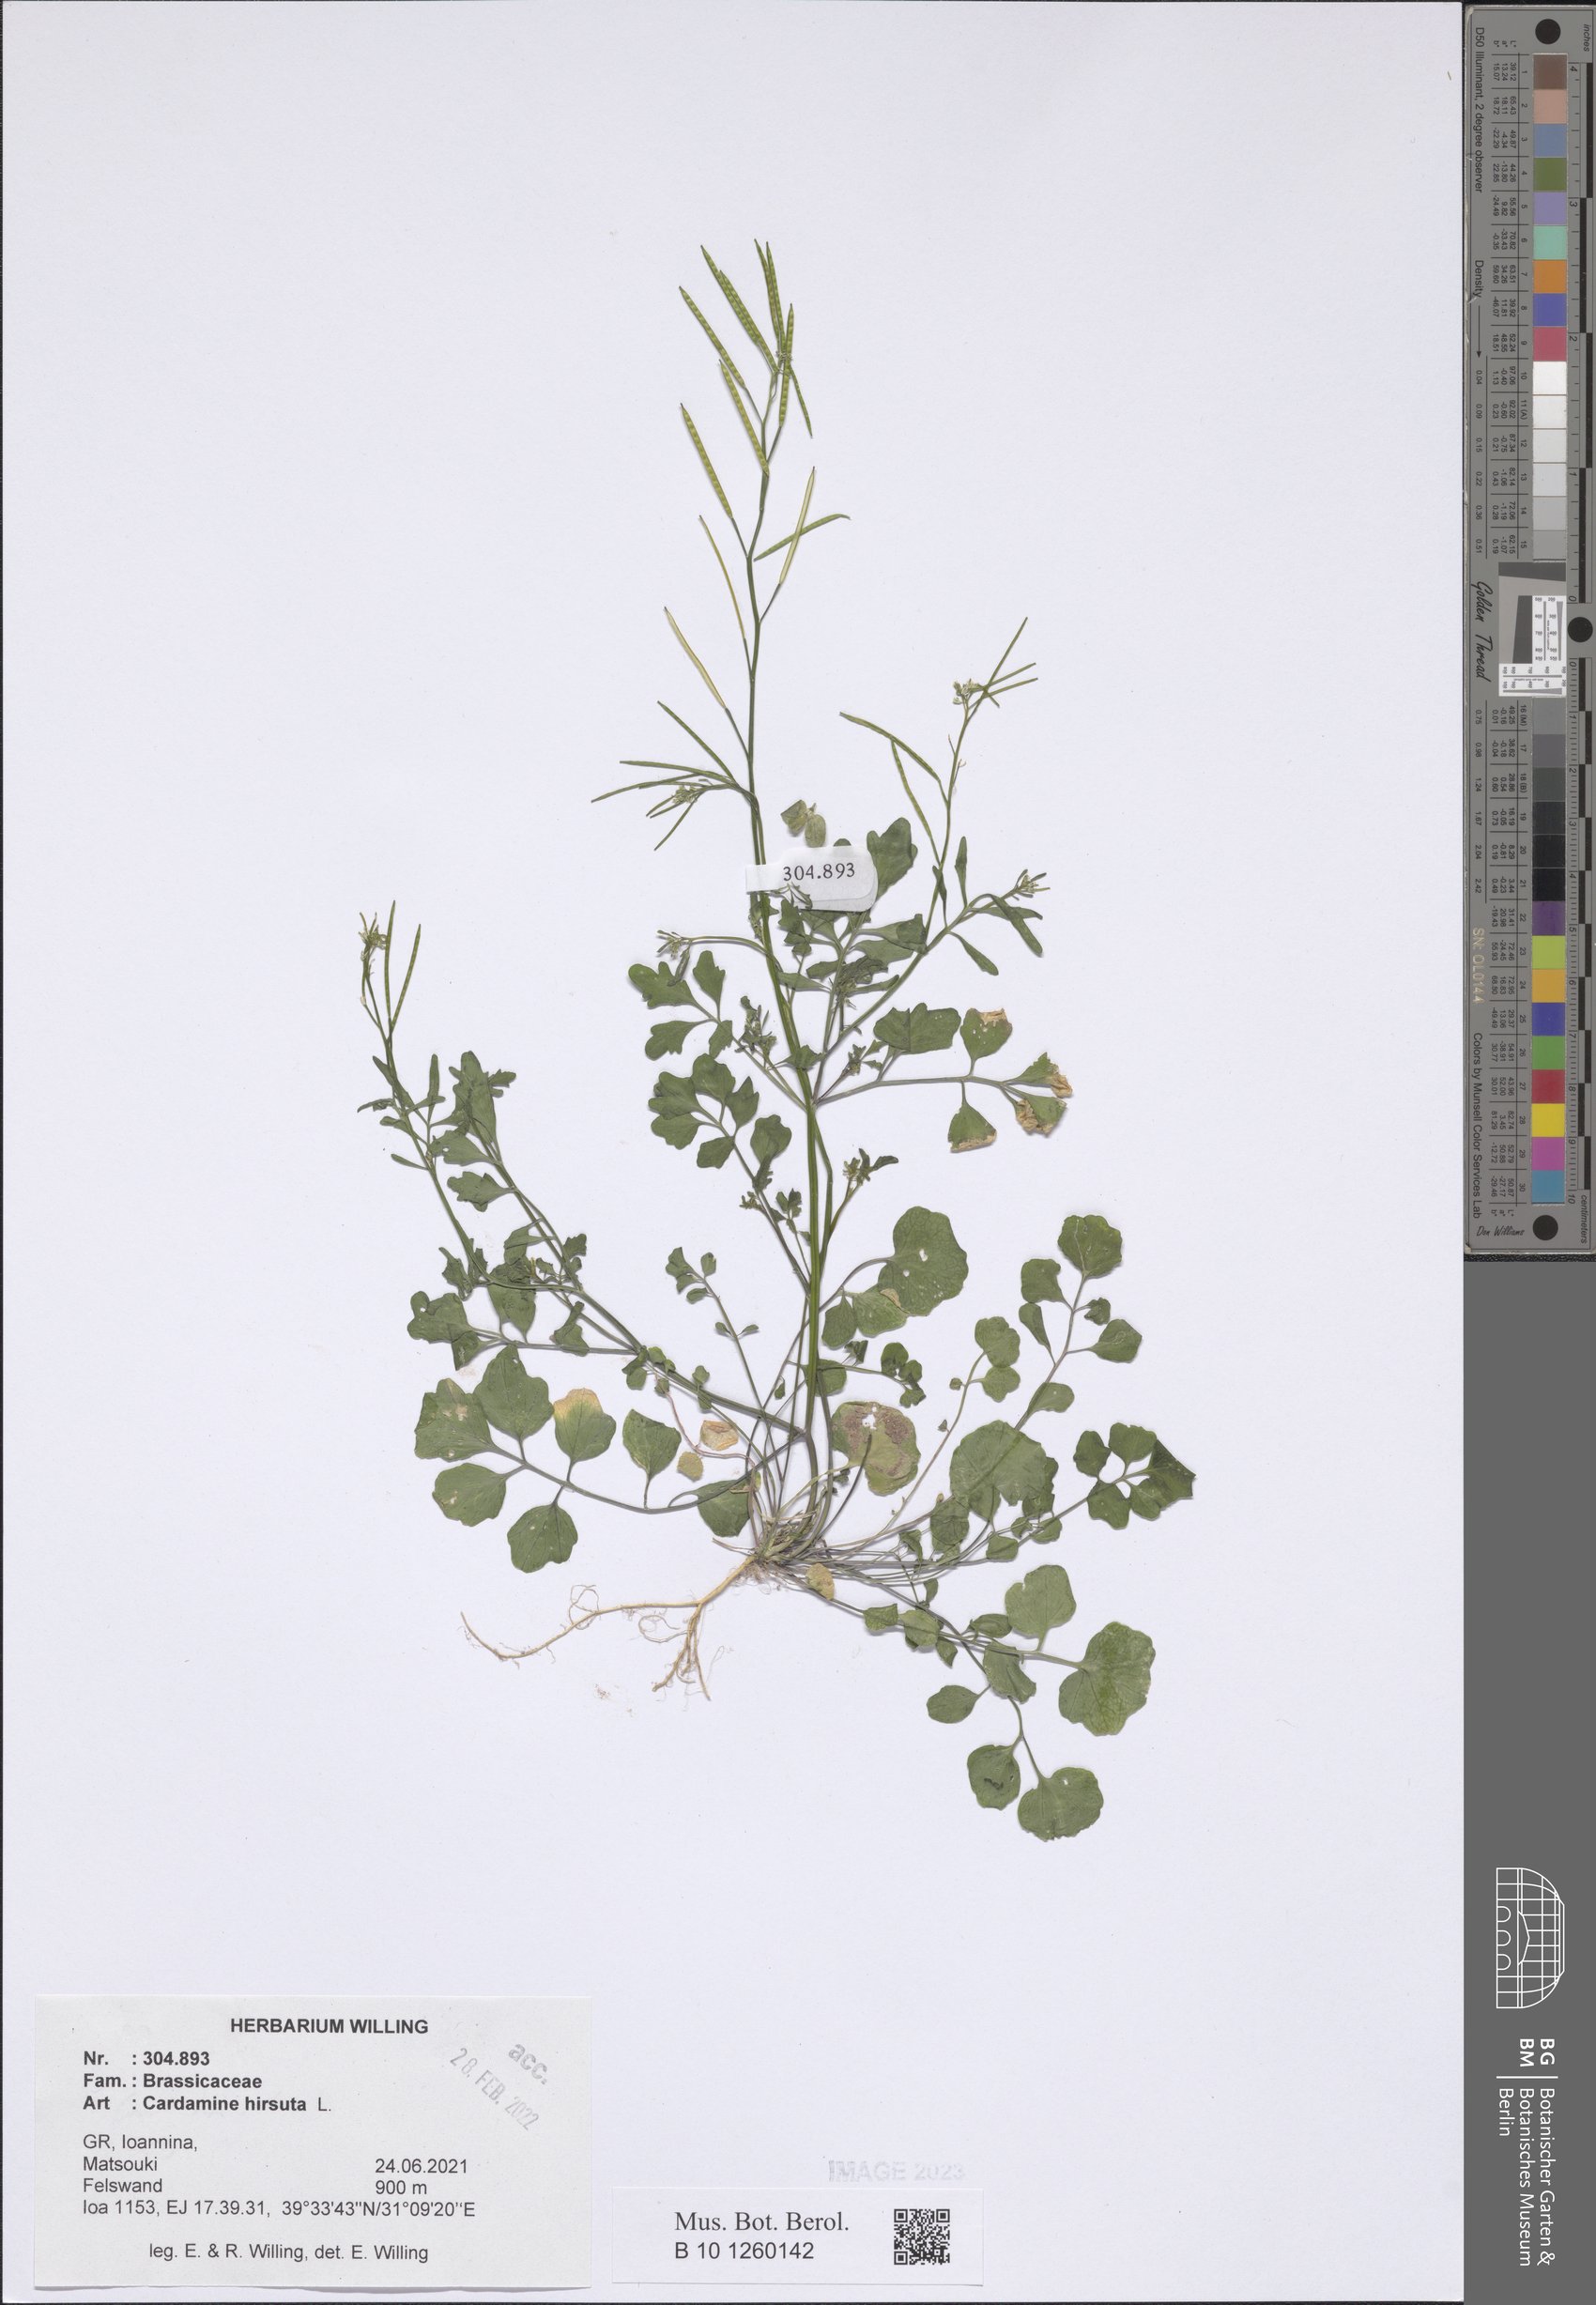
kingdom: Plantae
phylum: Tracheophyta
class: Magnoliopsida
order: Brassicales
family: Brassicaceae
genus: Cardamine
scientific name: Cardamine hirsuta
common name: Hairy bittercress
